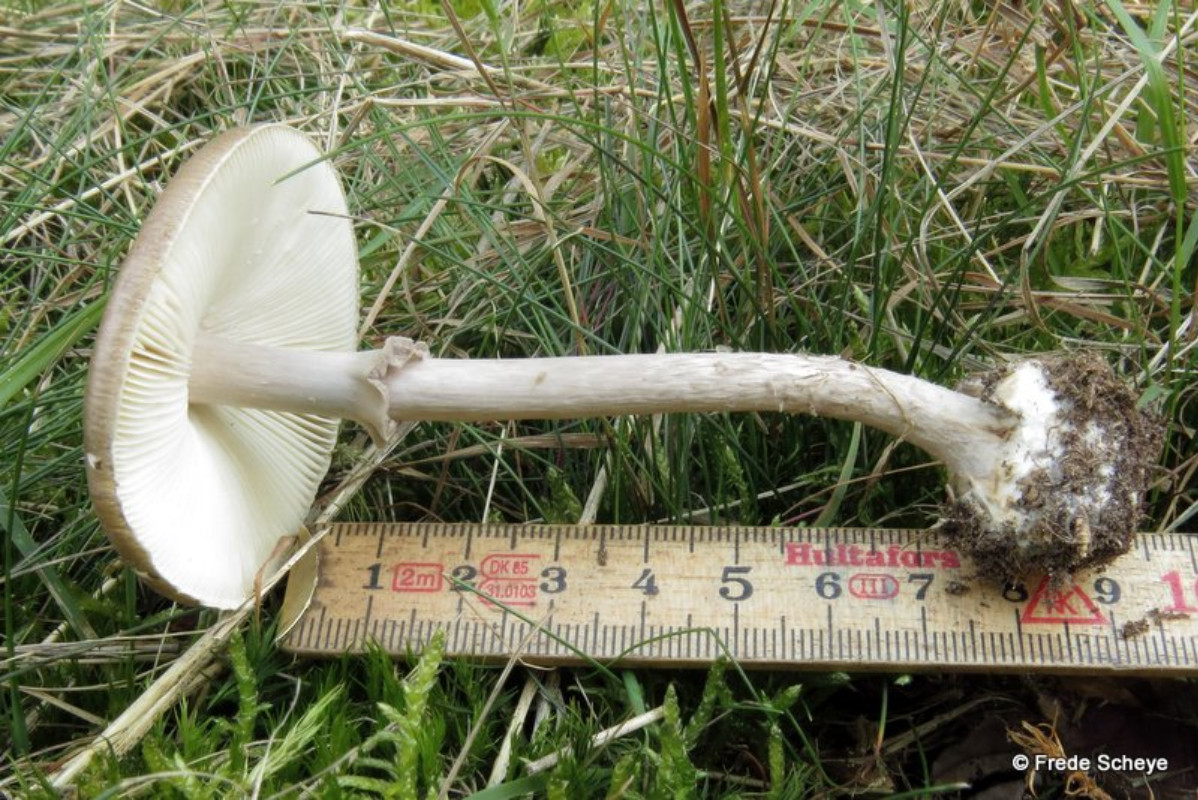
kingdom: Fungi
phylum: Basidiomycota
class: Agaricomycetes
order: Agaricales
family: Amanitaceae
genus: Amanita
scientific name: Amanita porphyria
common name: porfyr-fluesvamp
